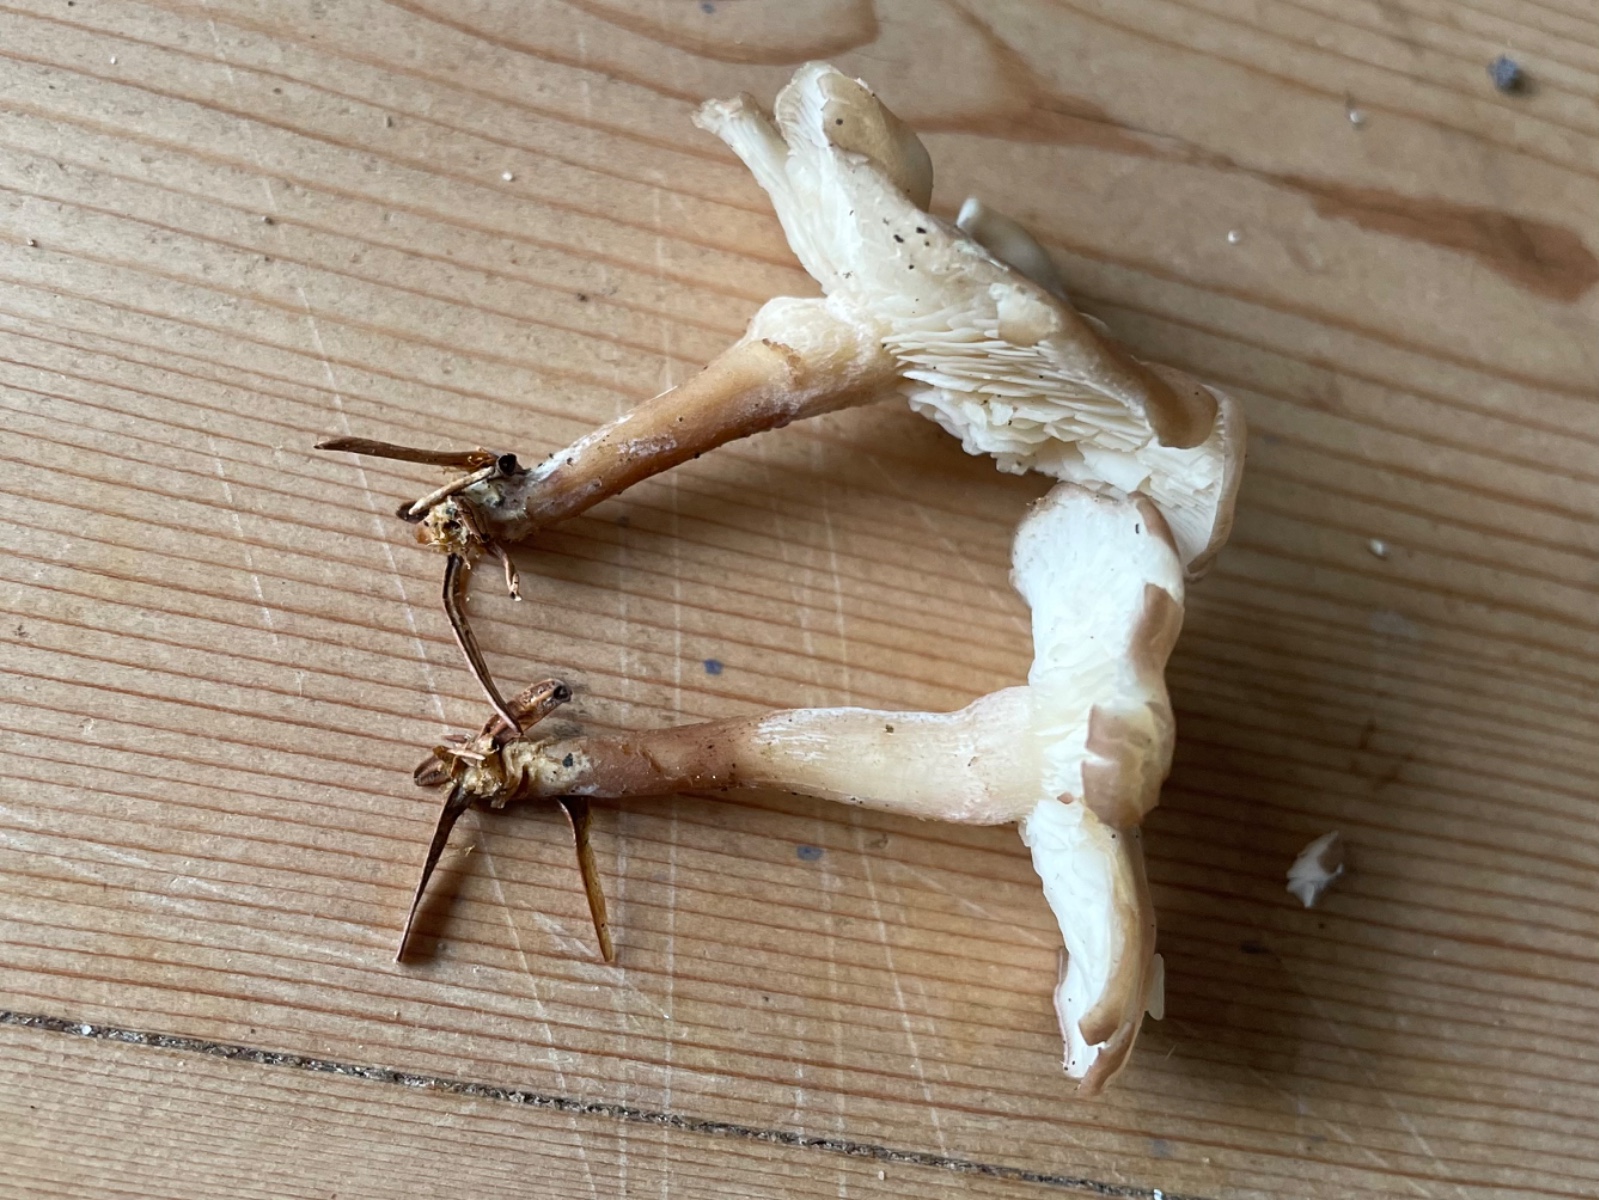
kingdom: Fungi
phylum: Basidiomycota
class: Agaricomycetes
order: Agaricales
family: Lyophyllaceae
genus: Calocybe
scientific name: Calocybe carnea
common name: rosa fagerhat
